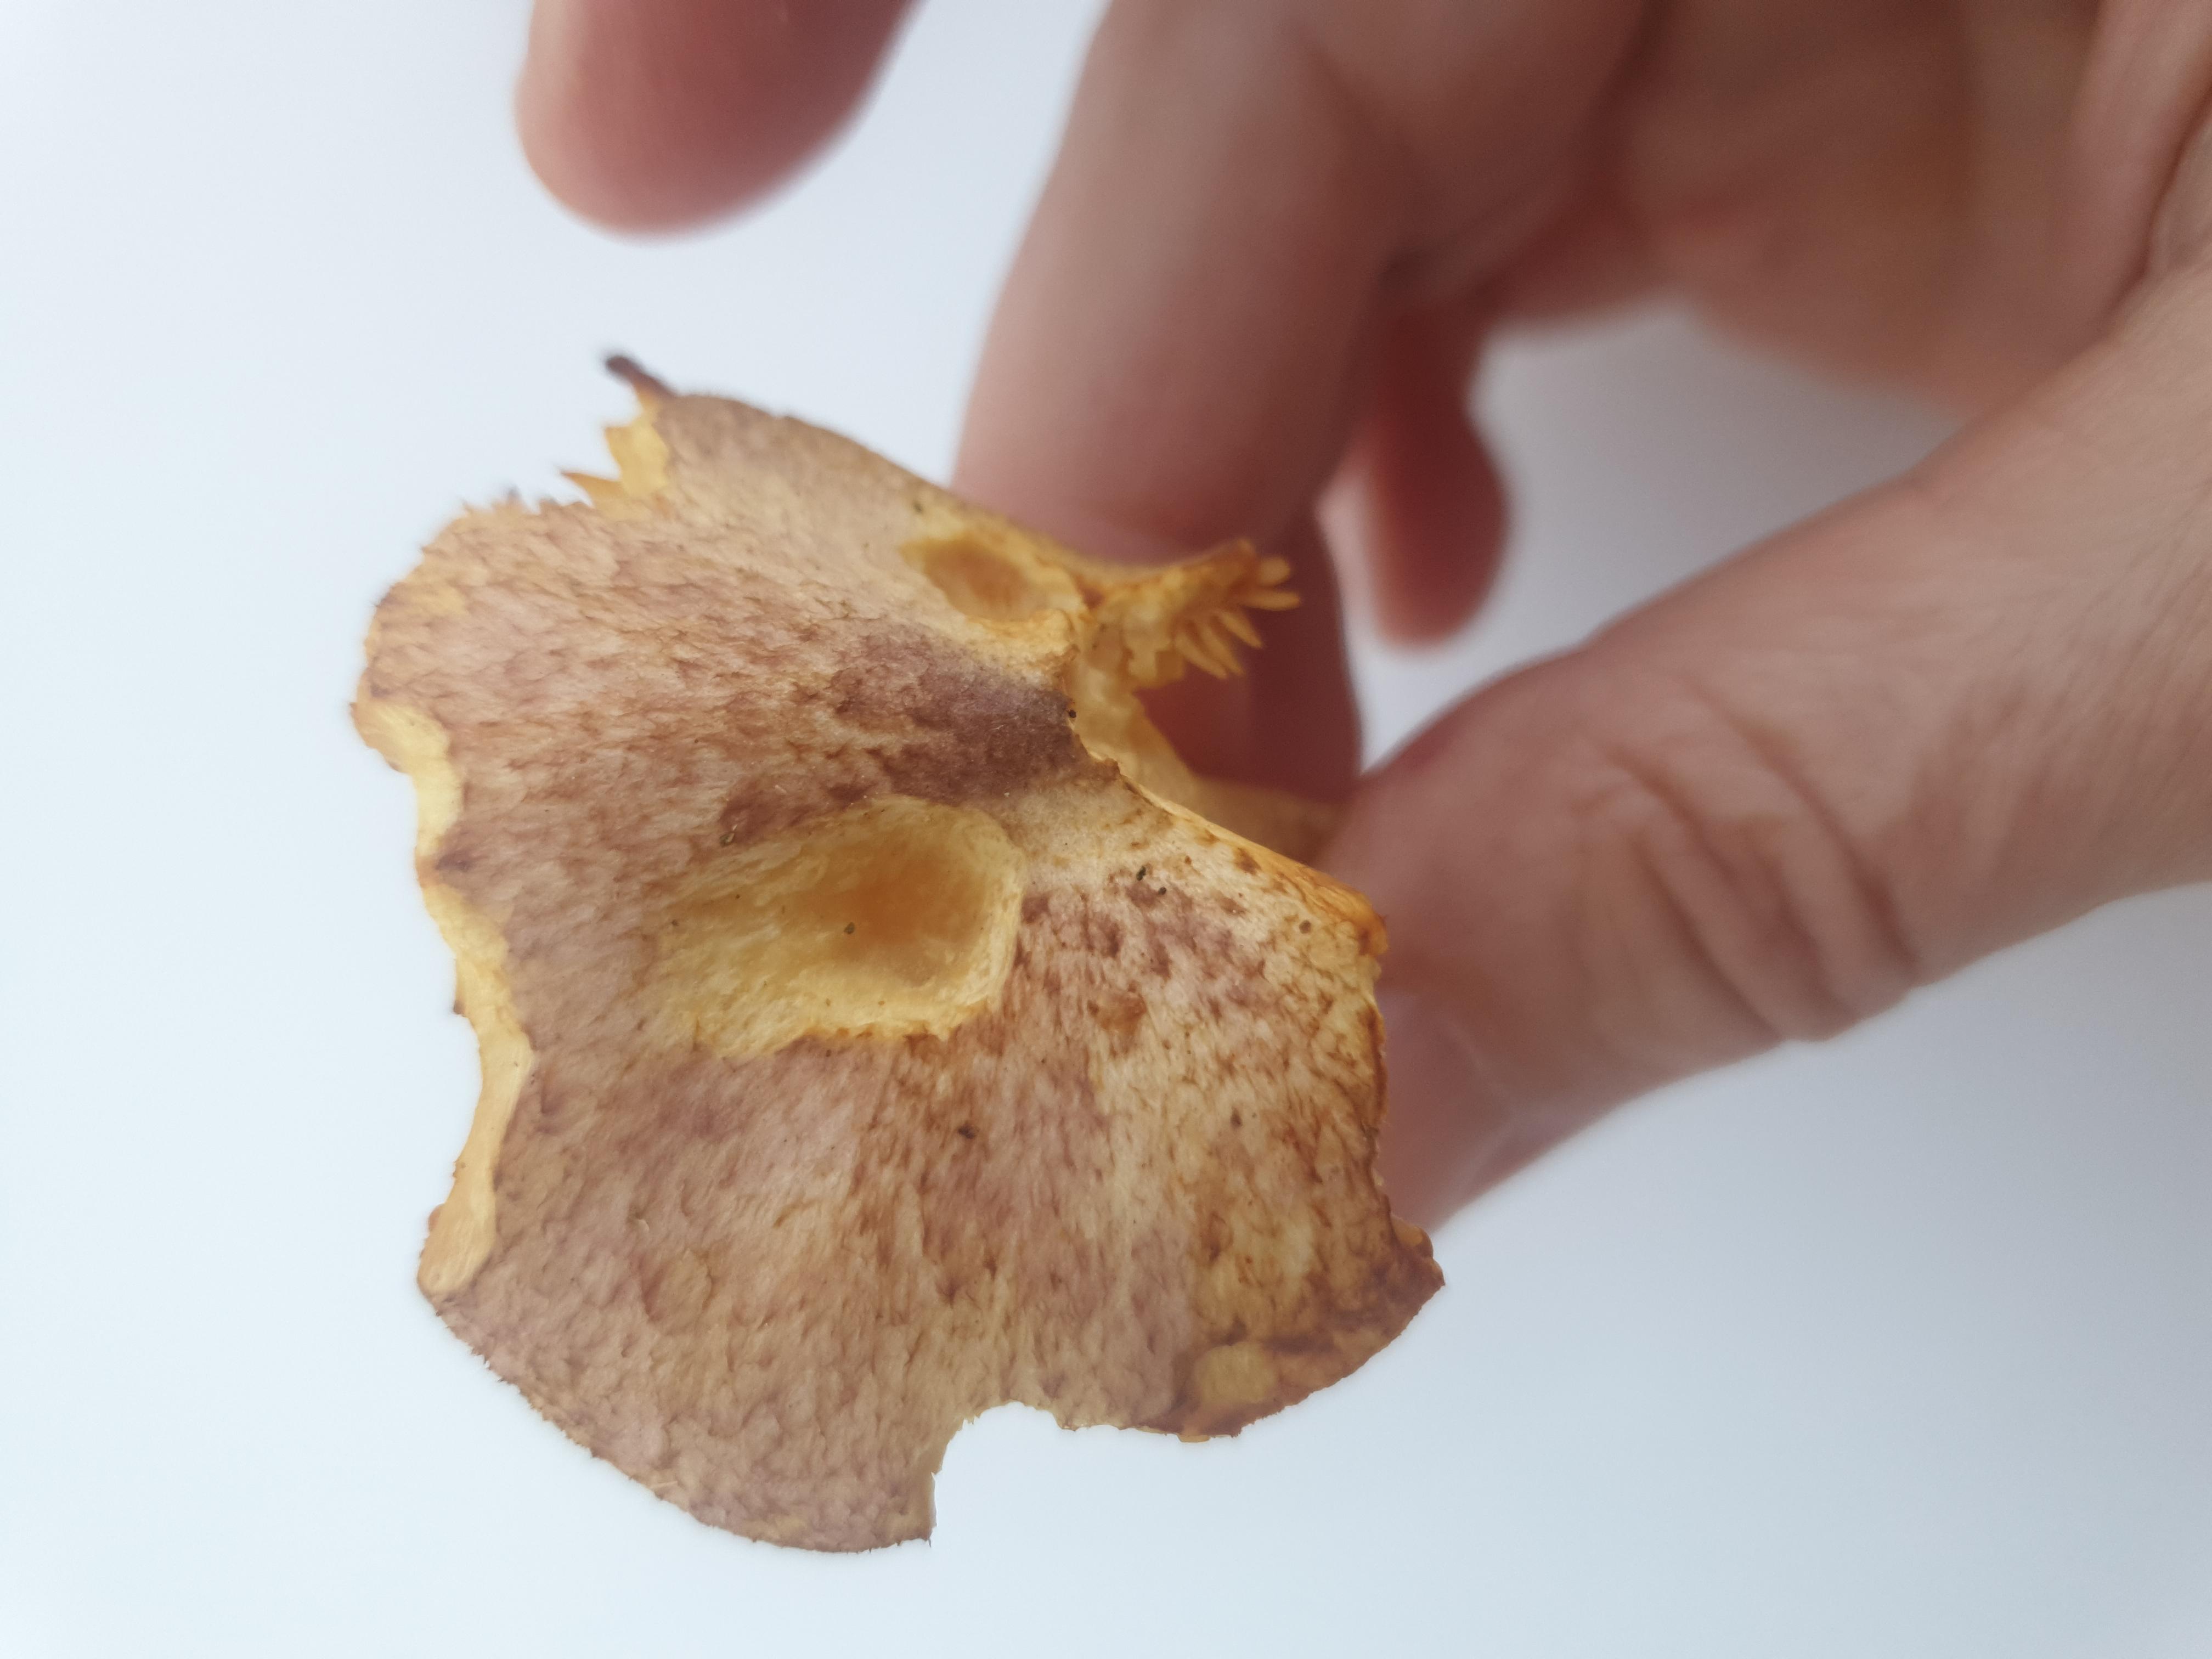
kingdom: Fungi
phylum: Basidiomycota
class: Agaricomycetes
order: Agaricales
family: Tricholomataceae
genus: Tricholomopsis
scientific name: Tricholomopsis rutilans
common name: purpur-væbnerhat
